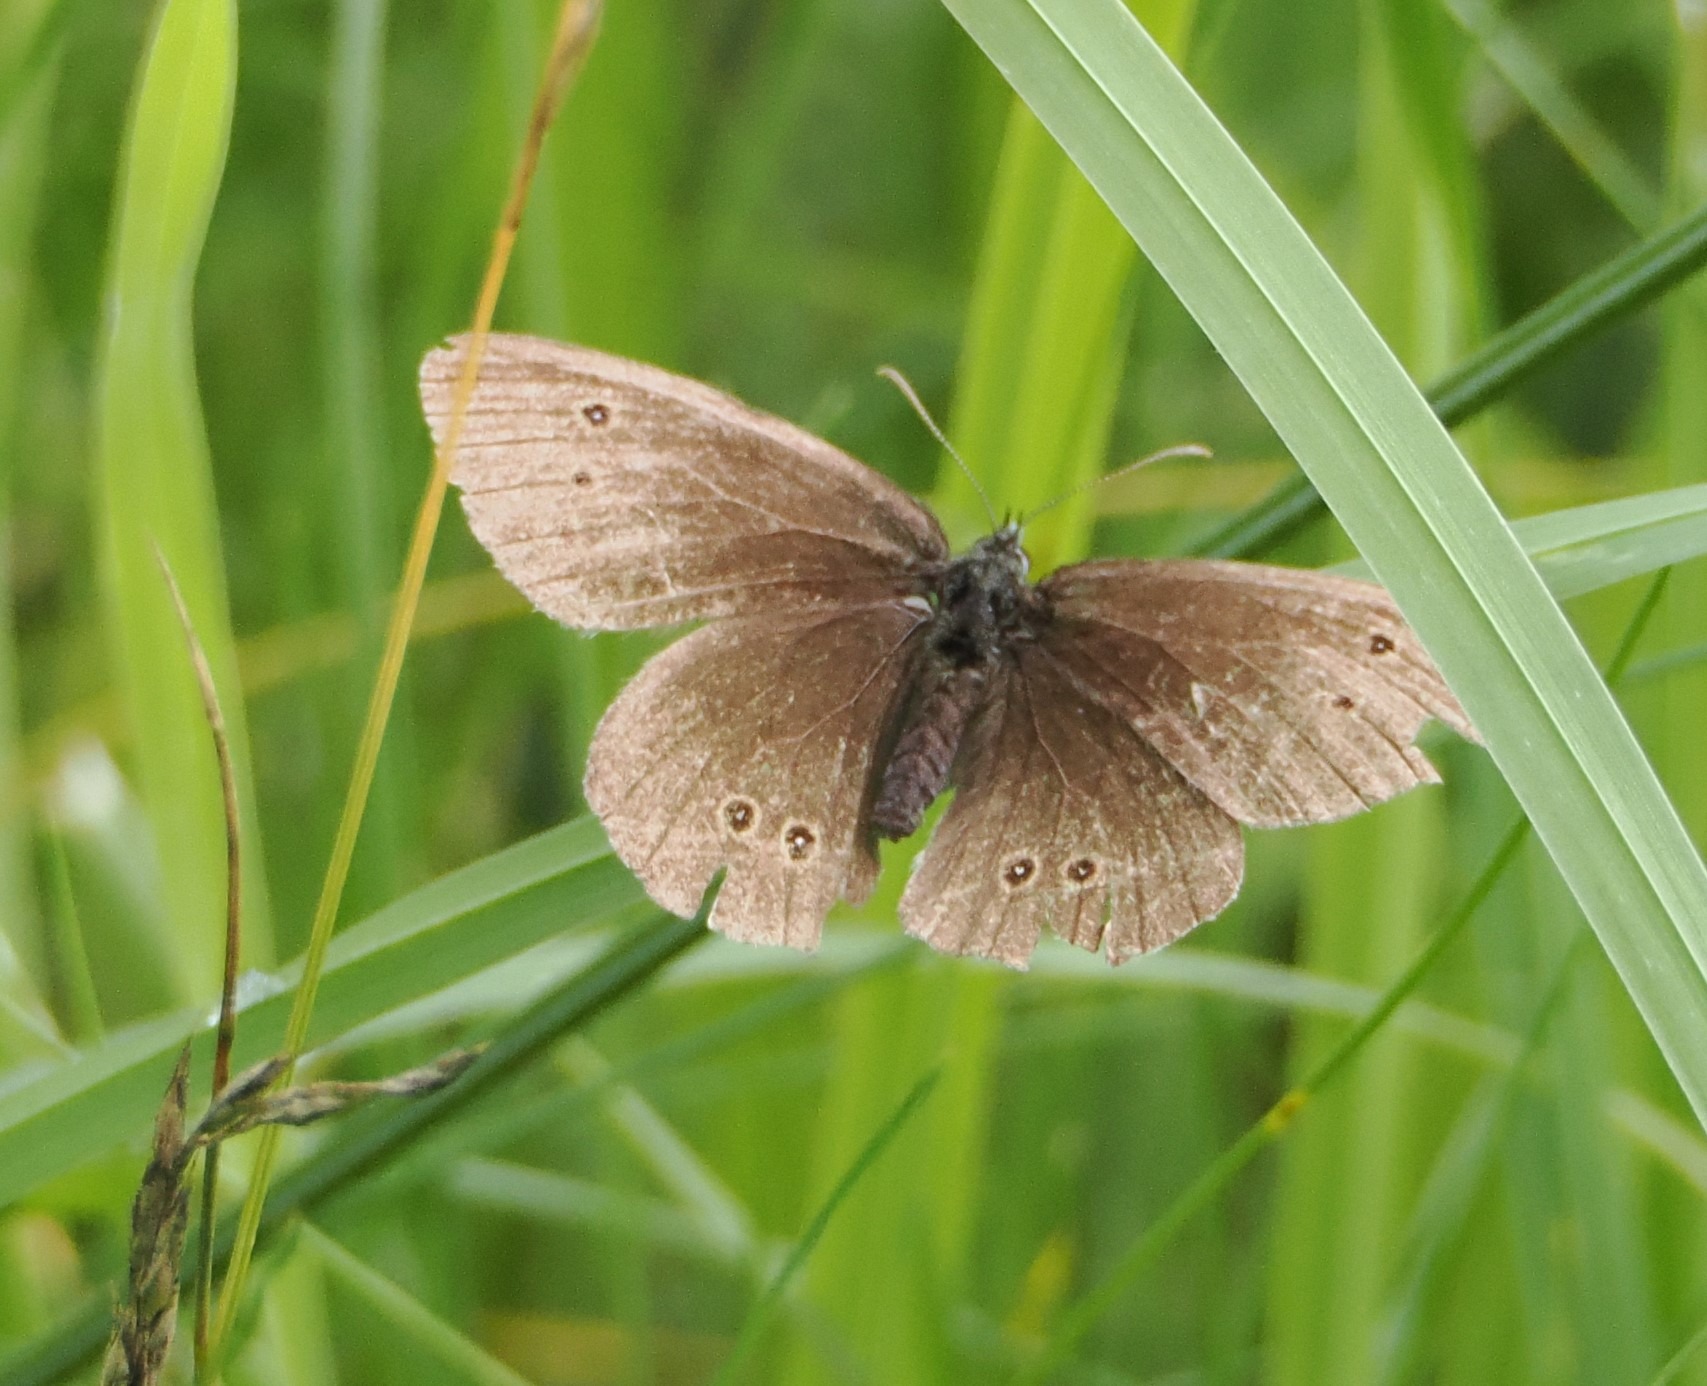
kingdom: Animalia
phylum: Arthropoda
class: Insecta
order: Lepidoptera
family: Nymphalidae
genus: Aphantopus
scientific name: Aphantopus hyperantus
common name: Engrandøje
